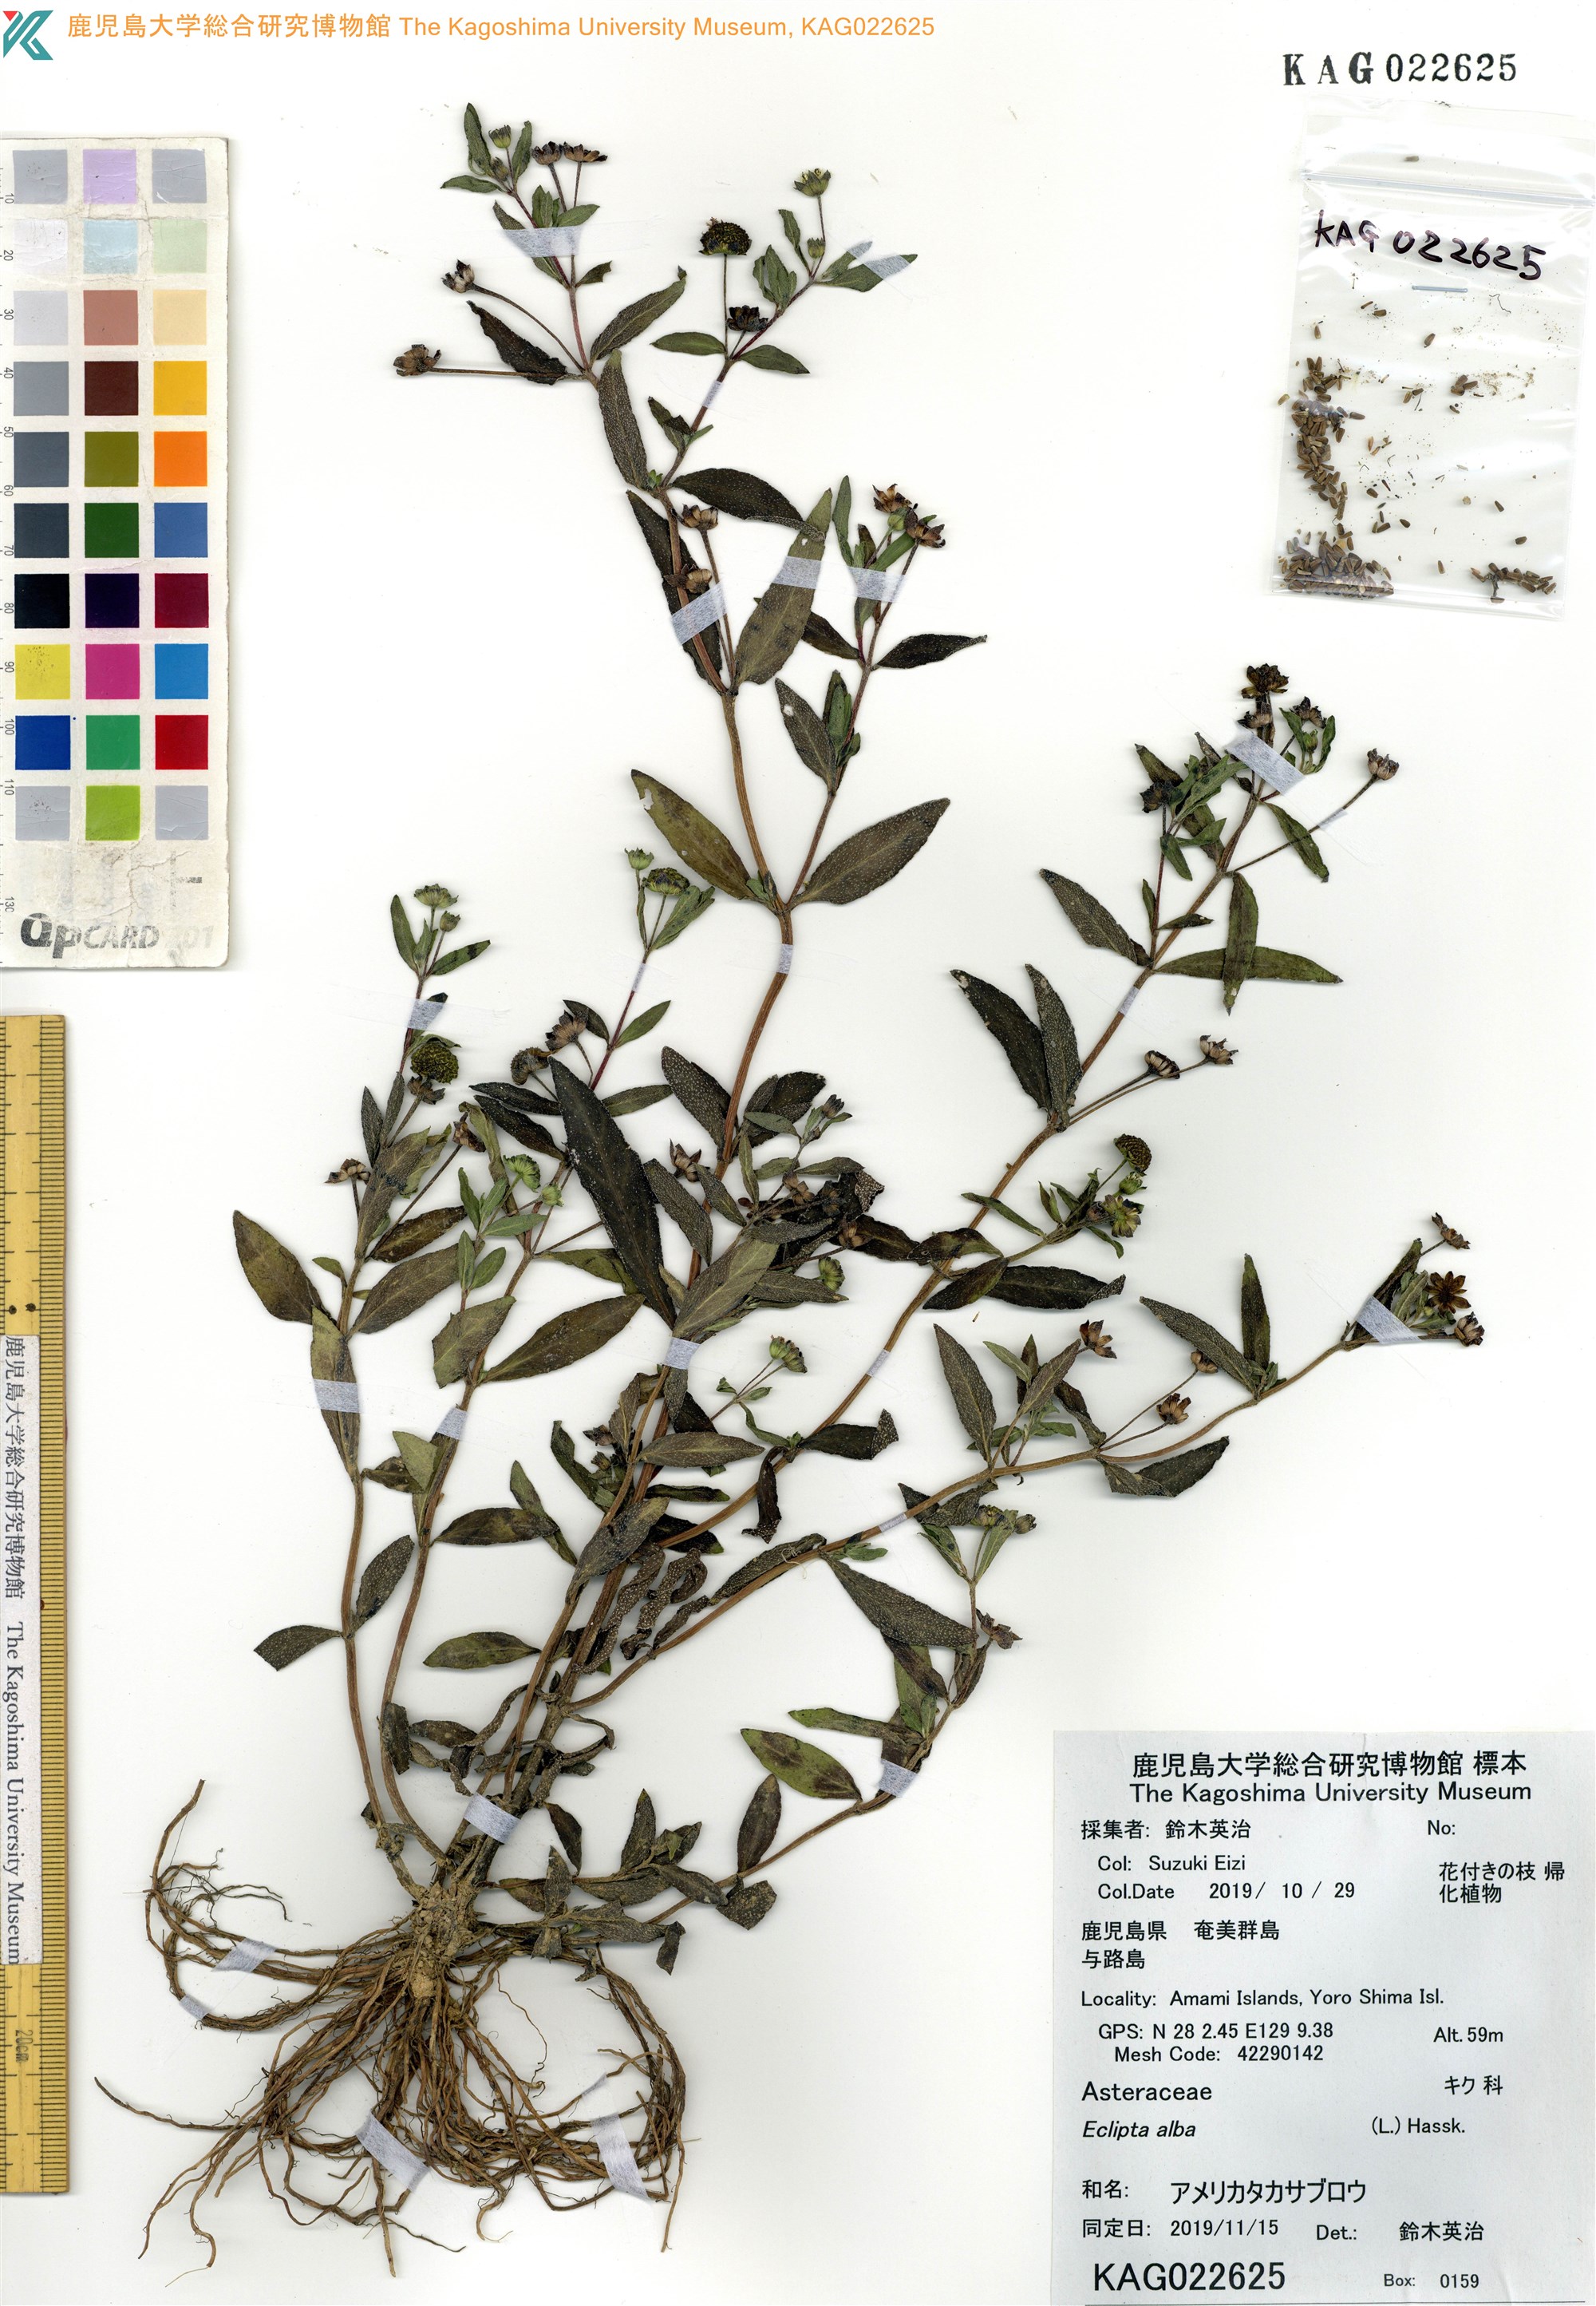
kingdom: Plantae
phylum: Tracheophyta
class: Magnoliopsida
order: Asterales
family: Asteraceae
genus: Eclipta
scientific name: Eclipta alba
